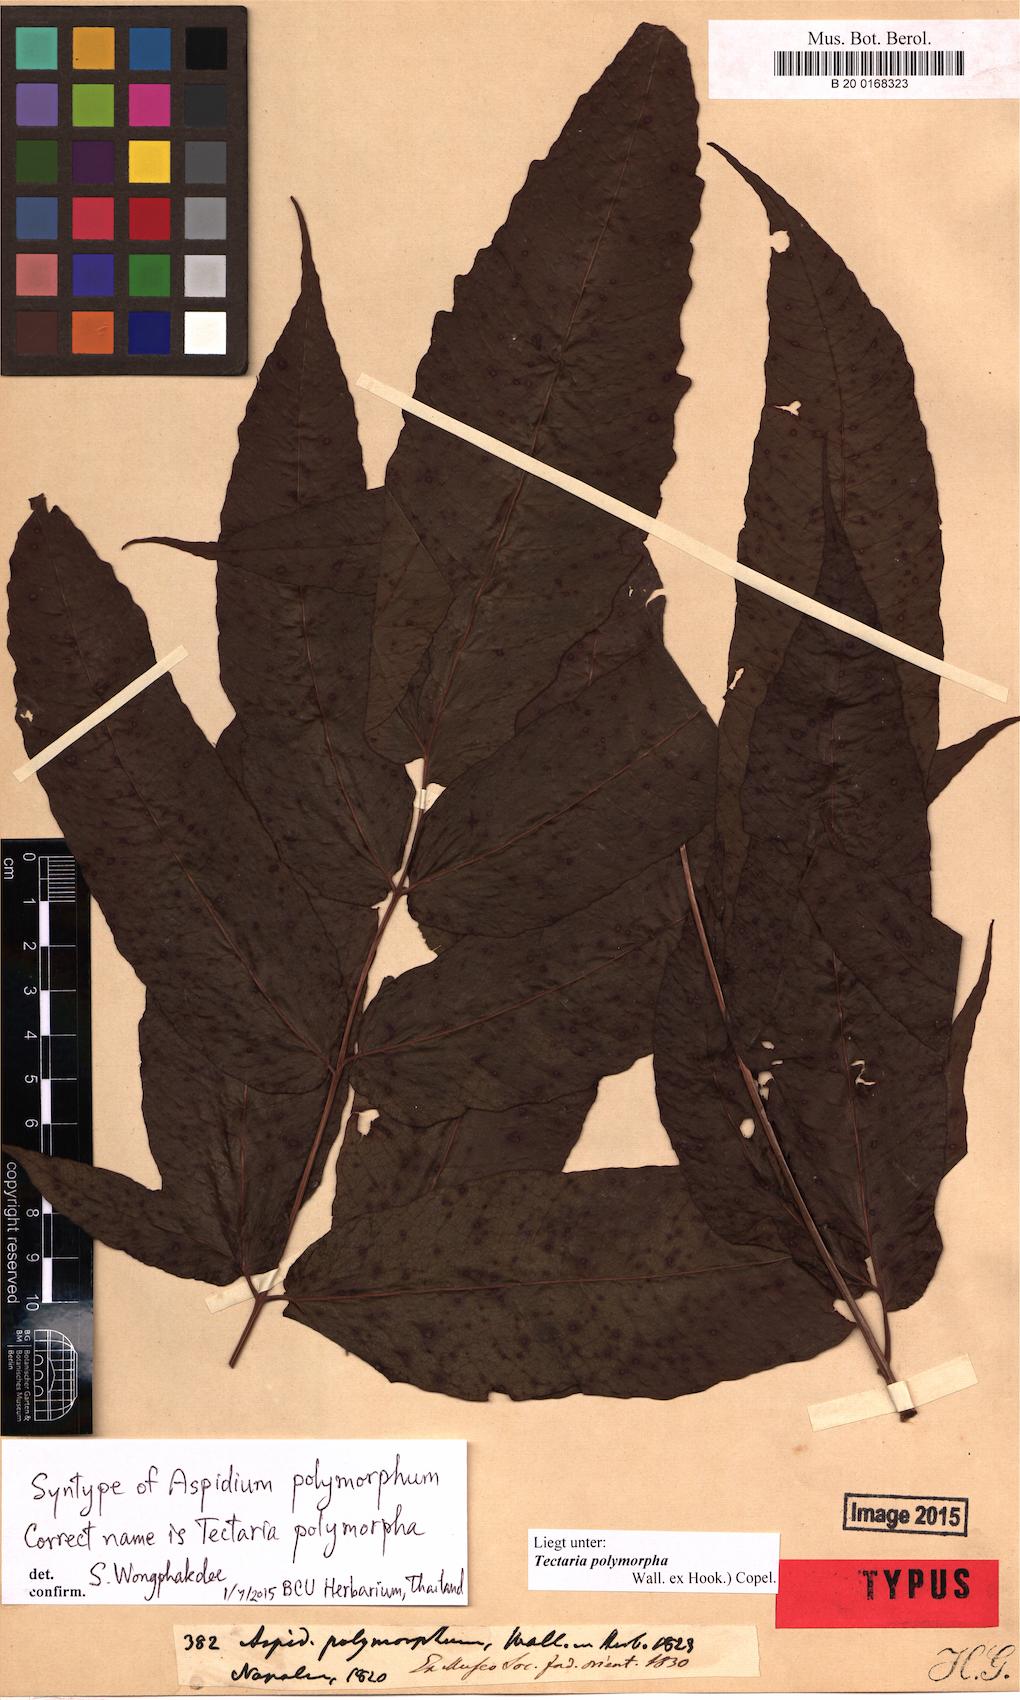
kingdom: Plantae
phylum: Tracheophyta
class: Polypodiopsida
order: Polypodiales
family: Tectariaceae
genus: Tectaria
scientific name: Tectaria polymorpha
